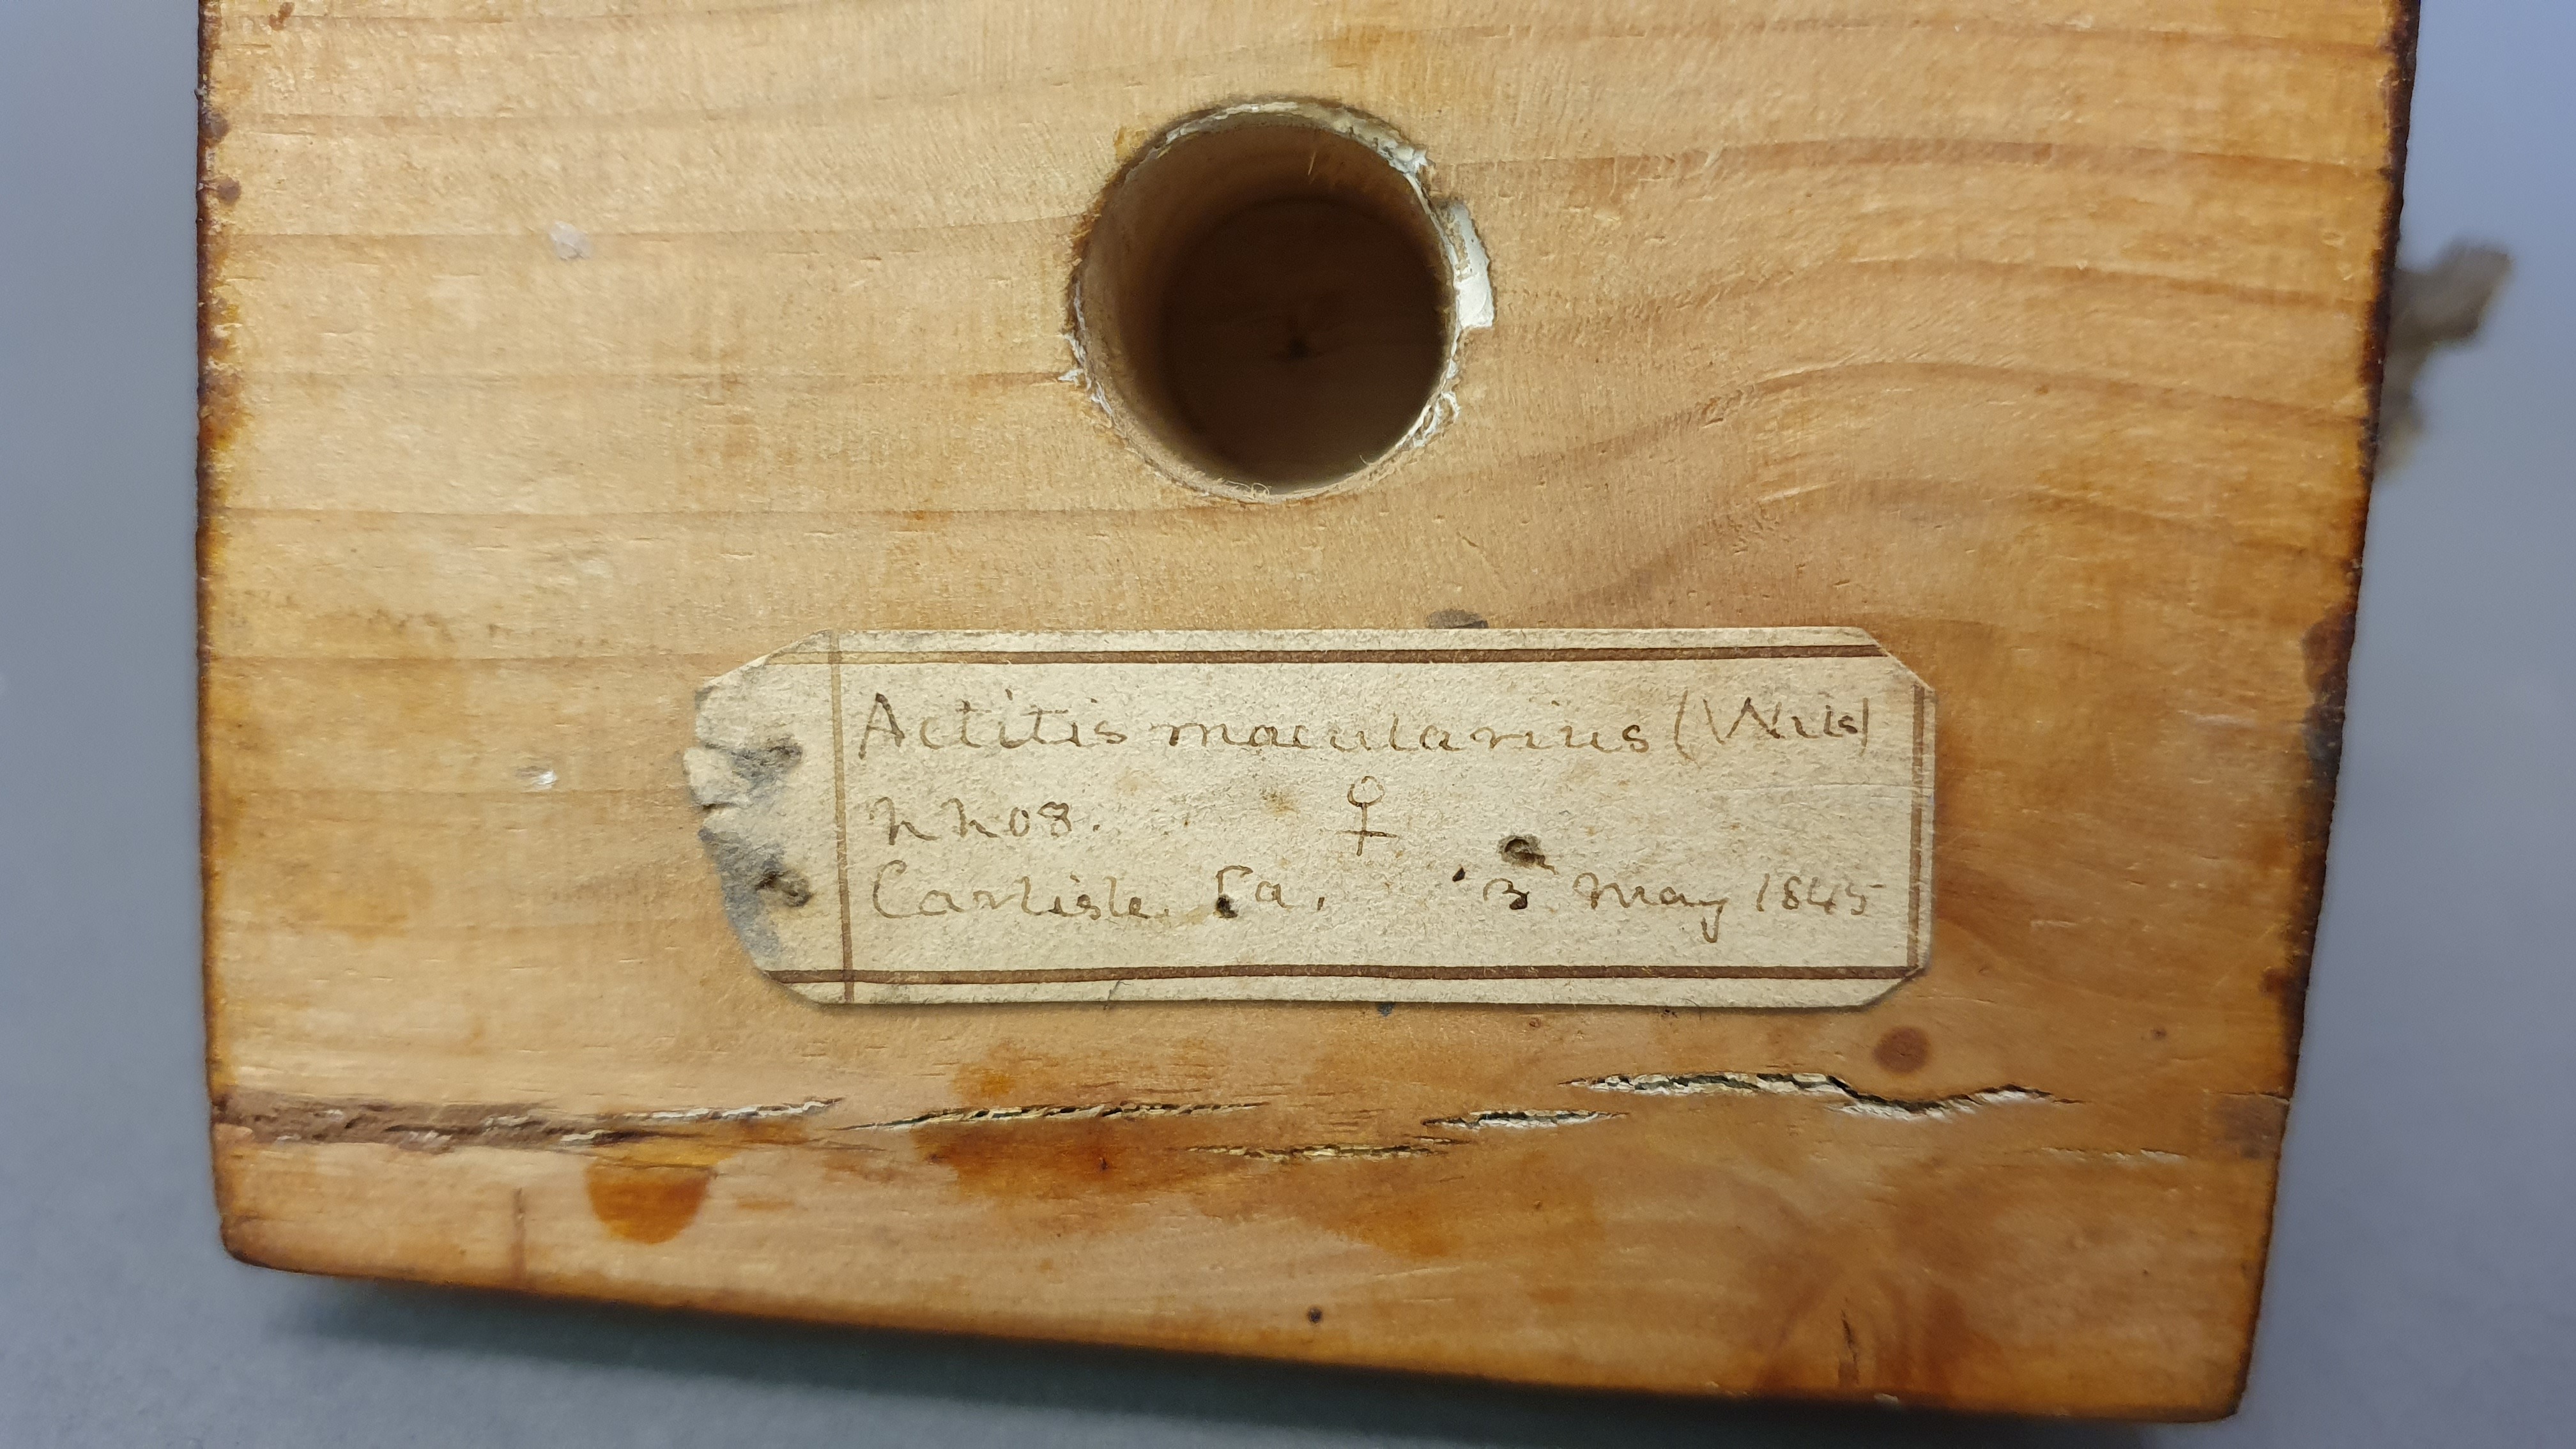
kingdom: Animalia
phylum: Chordata
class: Aves
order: Charadriiformes
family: Scolopacidae
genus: Actitis
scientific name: Actitis macularius
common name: Spotted sandpiper
